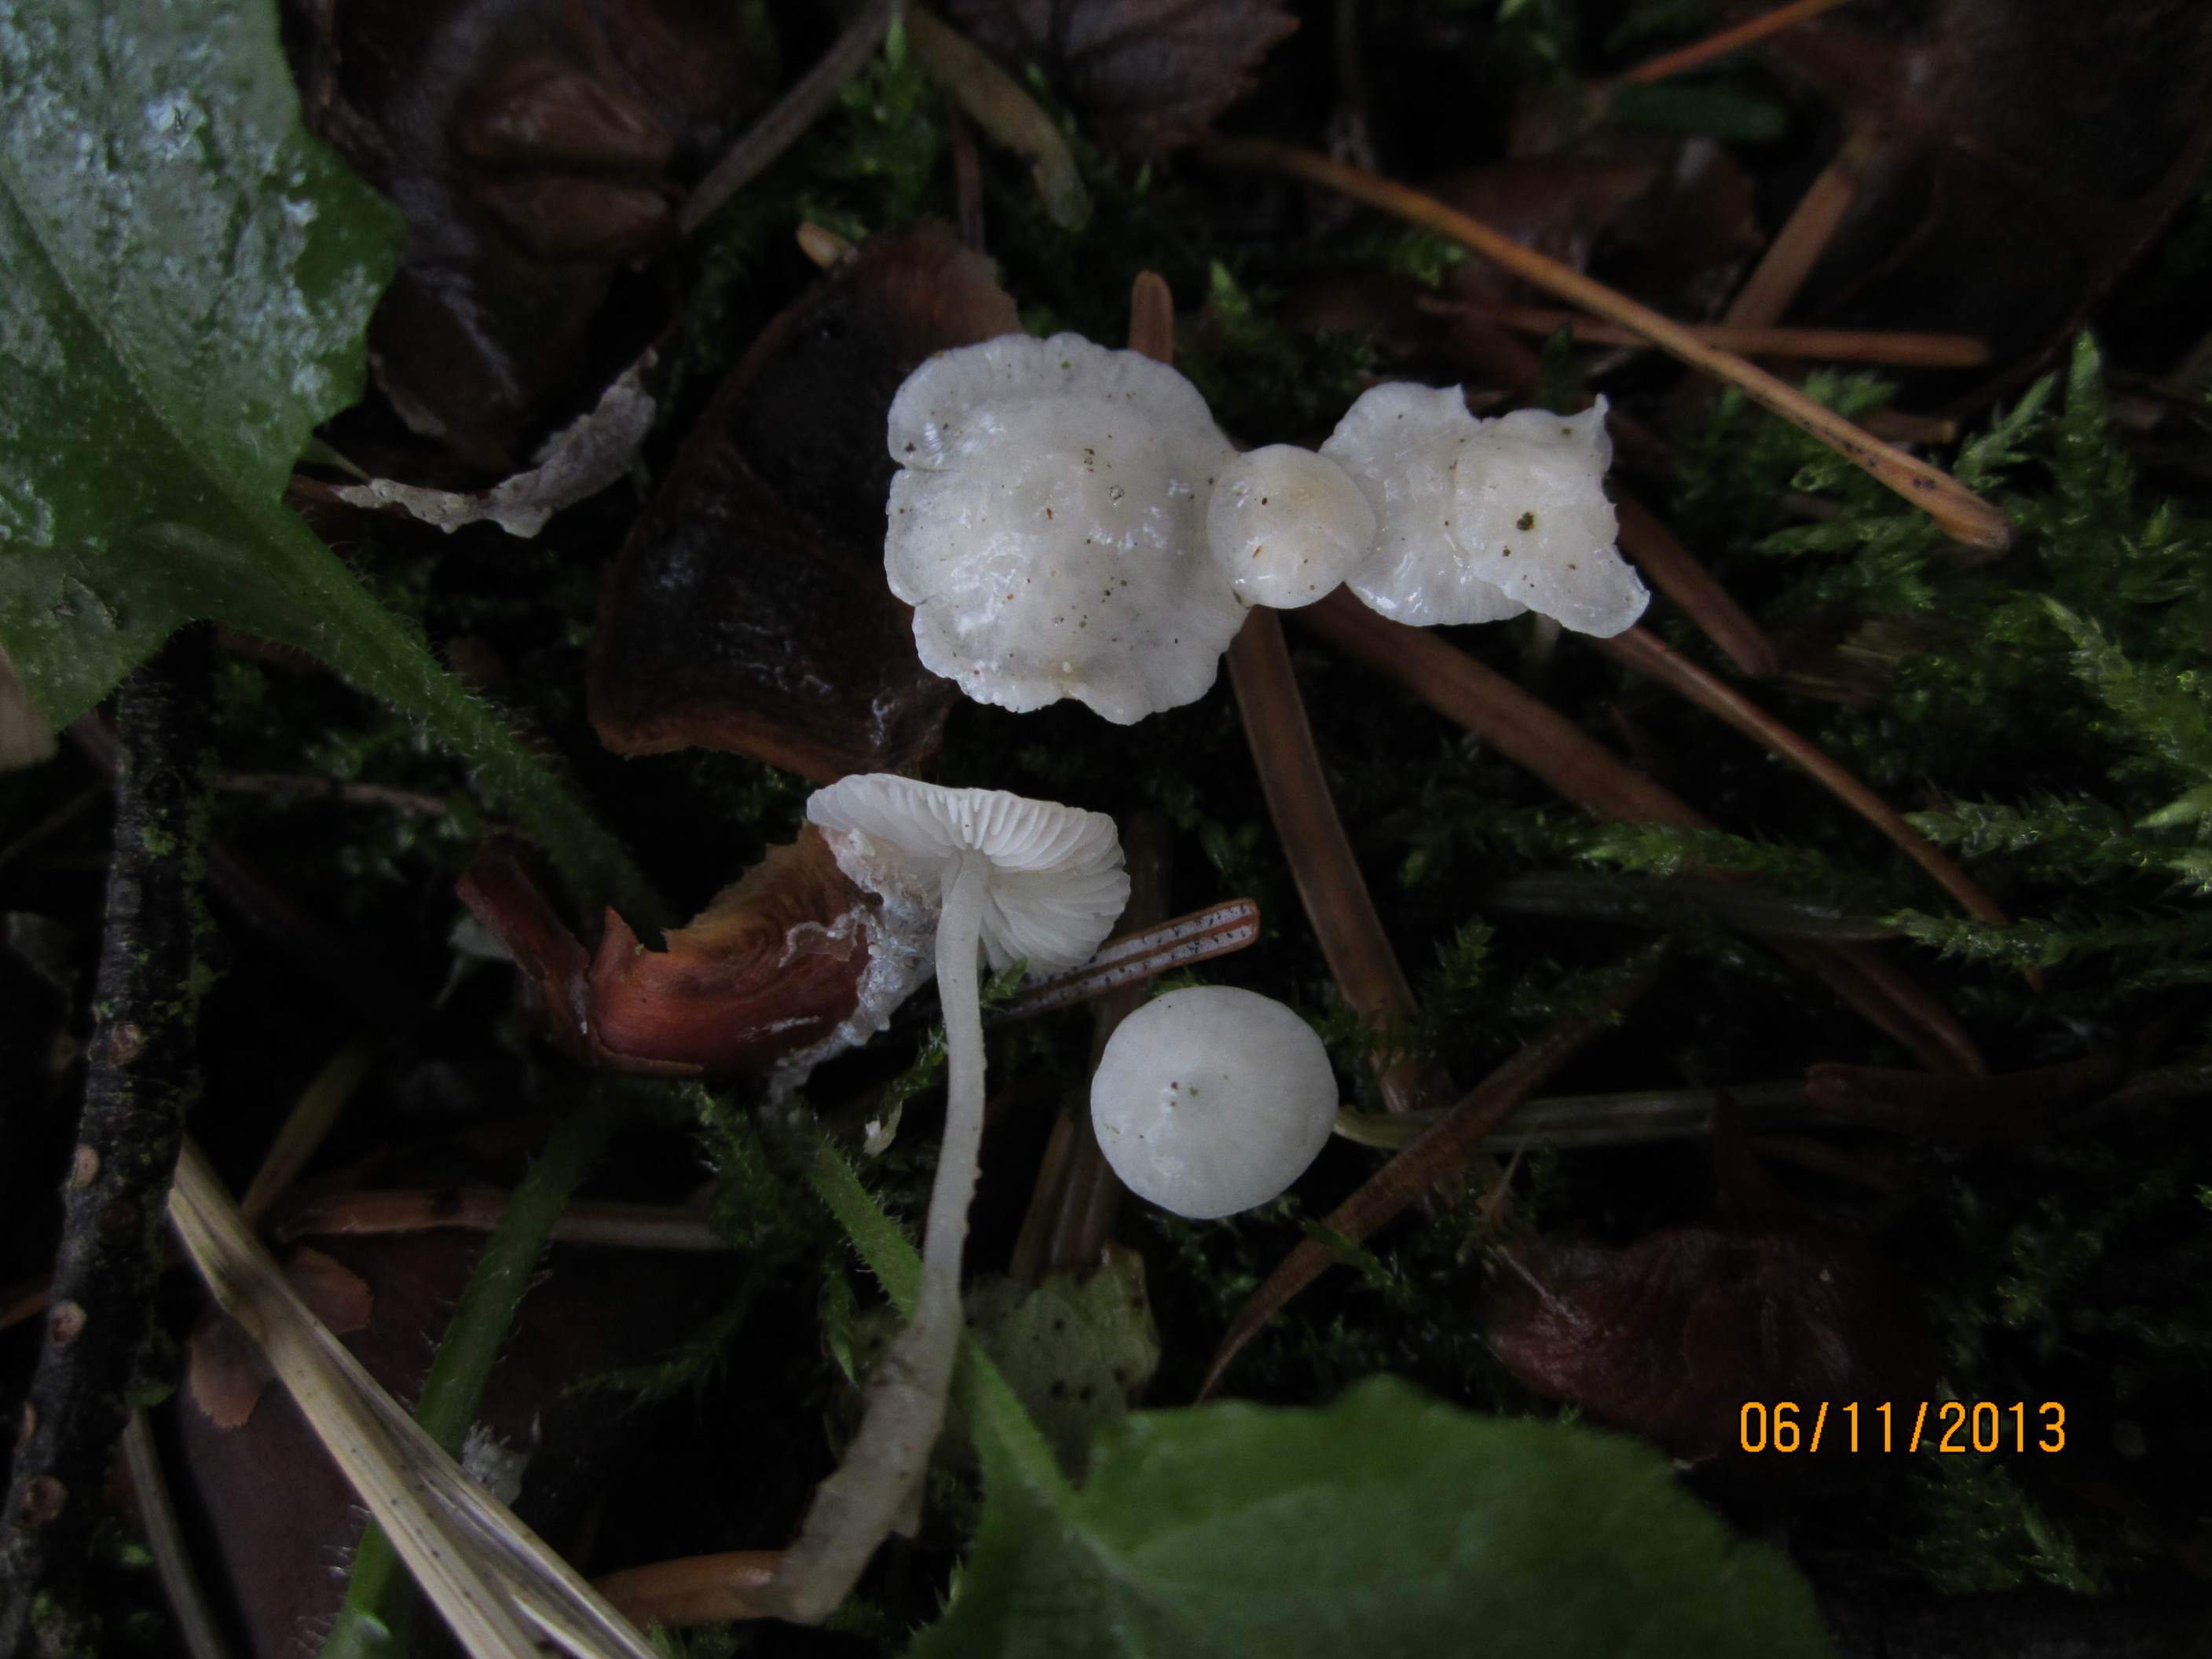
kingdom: Fungi
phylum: Basidiomycota
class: Agaricomycetes
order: Agaricales
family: Mycenaceae
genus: Hemimycena
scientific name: Hemimycena lactea
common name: mælkehvid huesvamp
